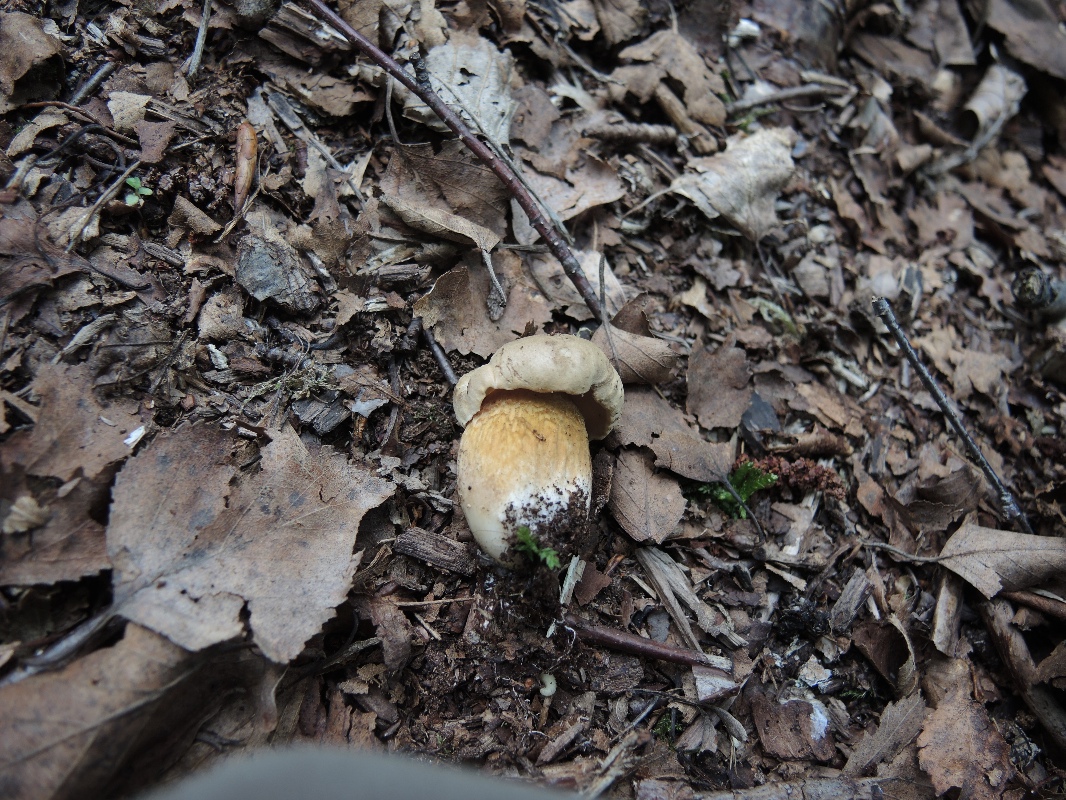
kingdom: Fungi
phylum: Basidiomycota
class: Agaricomycetes
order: Boletales
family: Boletaceae
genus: Tylopilus
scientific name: Tylopilus felleus
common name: galderørhat
